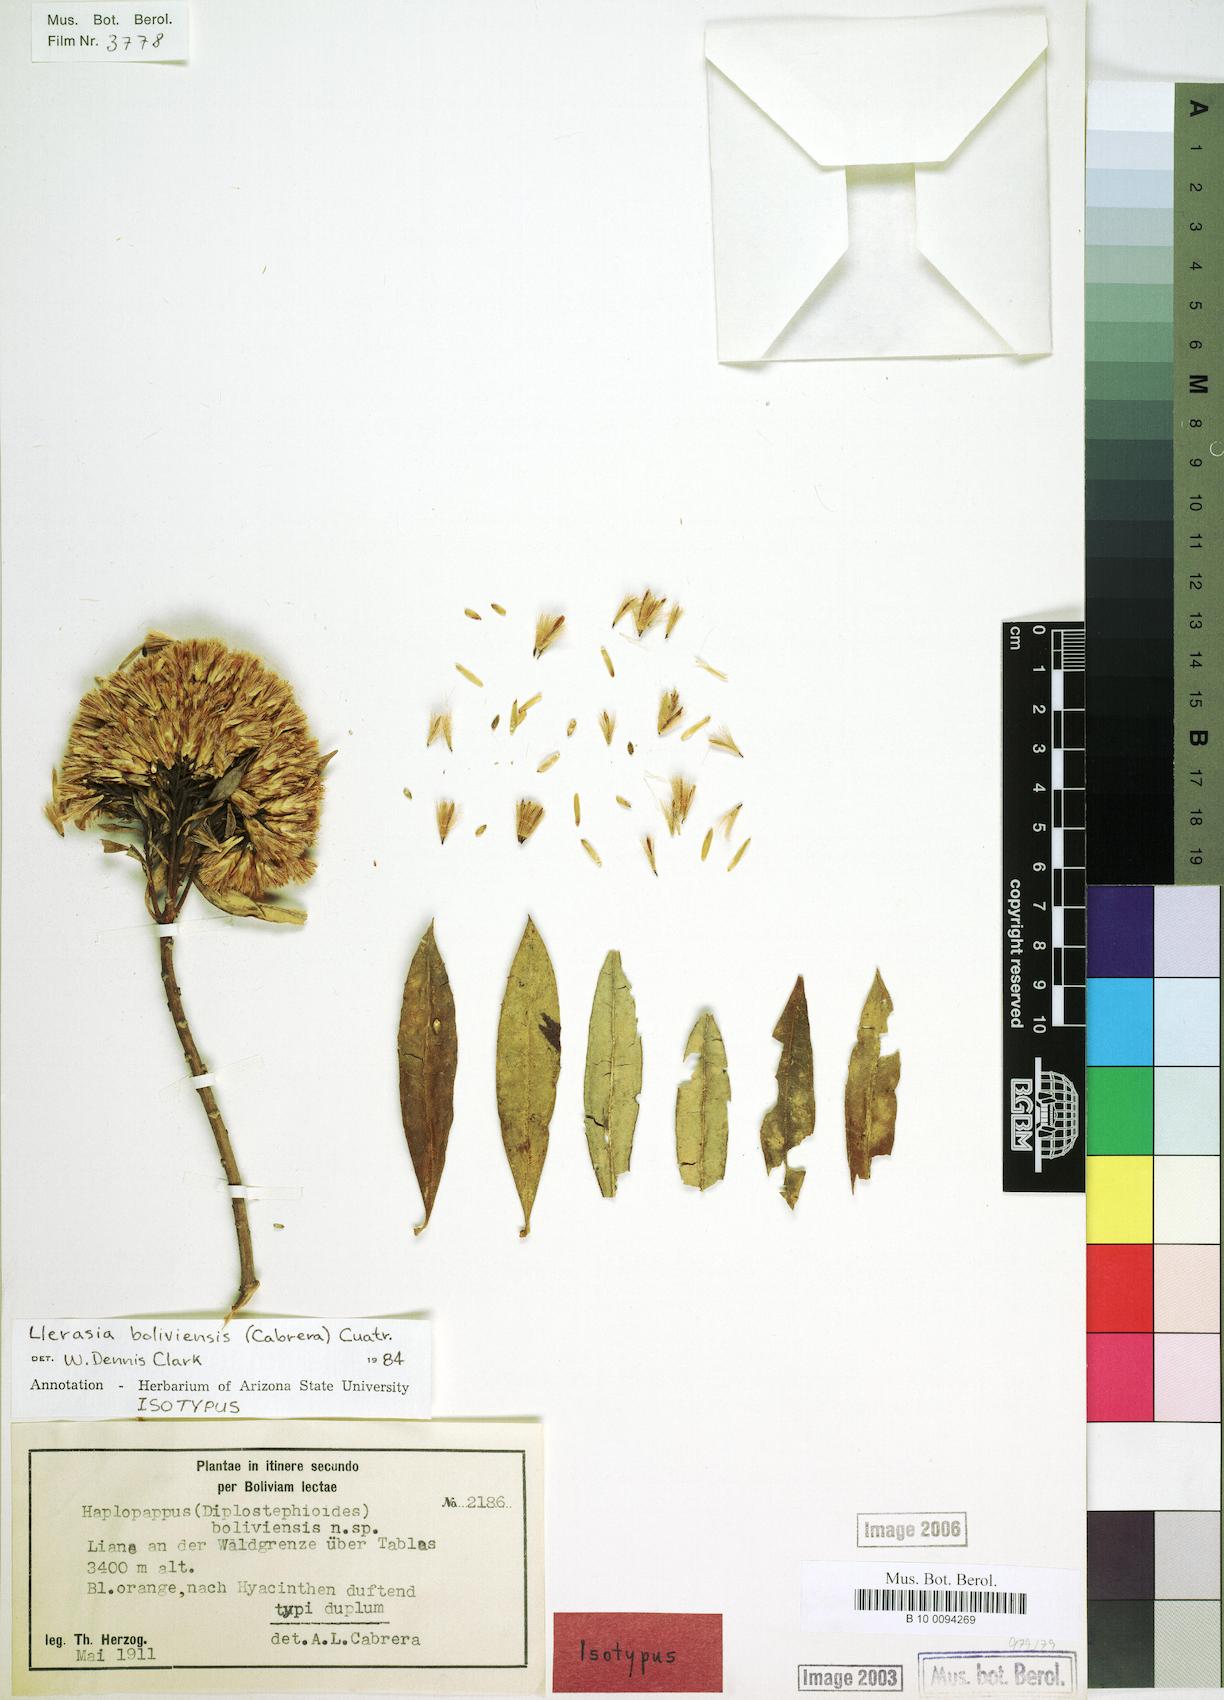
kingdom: Plantae
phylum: Tracheophyta
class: Magnoliopsida
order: Asterales
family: Asteraceae
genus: Llerasia
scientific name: Llerasia boliviensis
